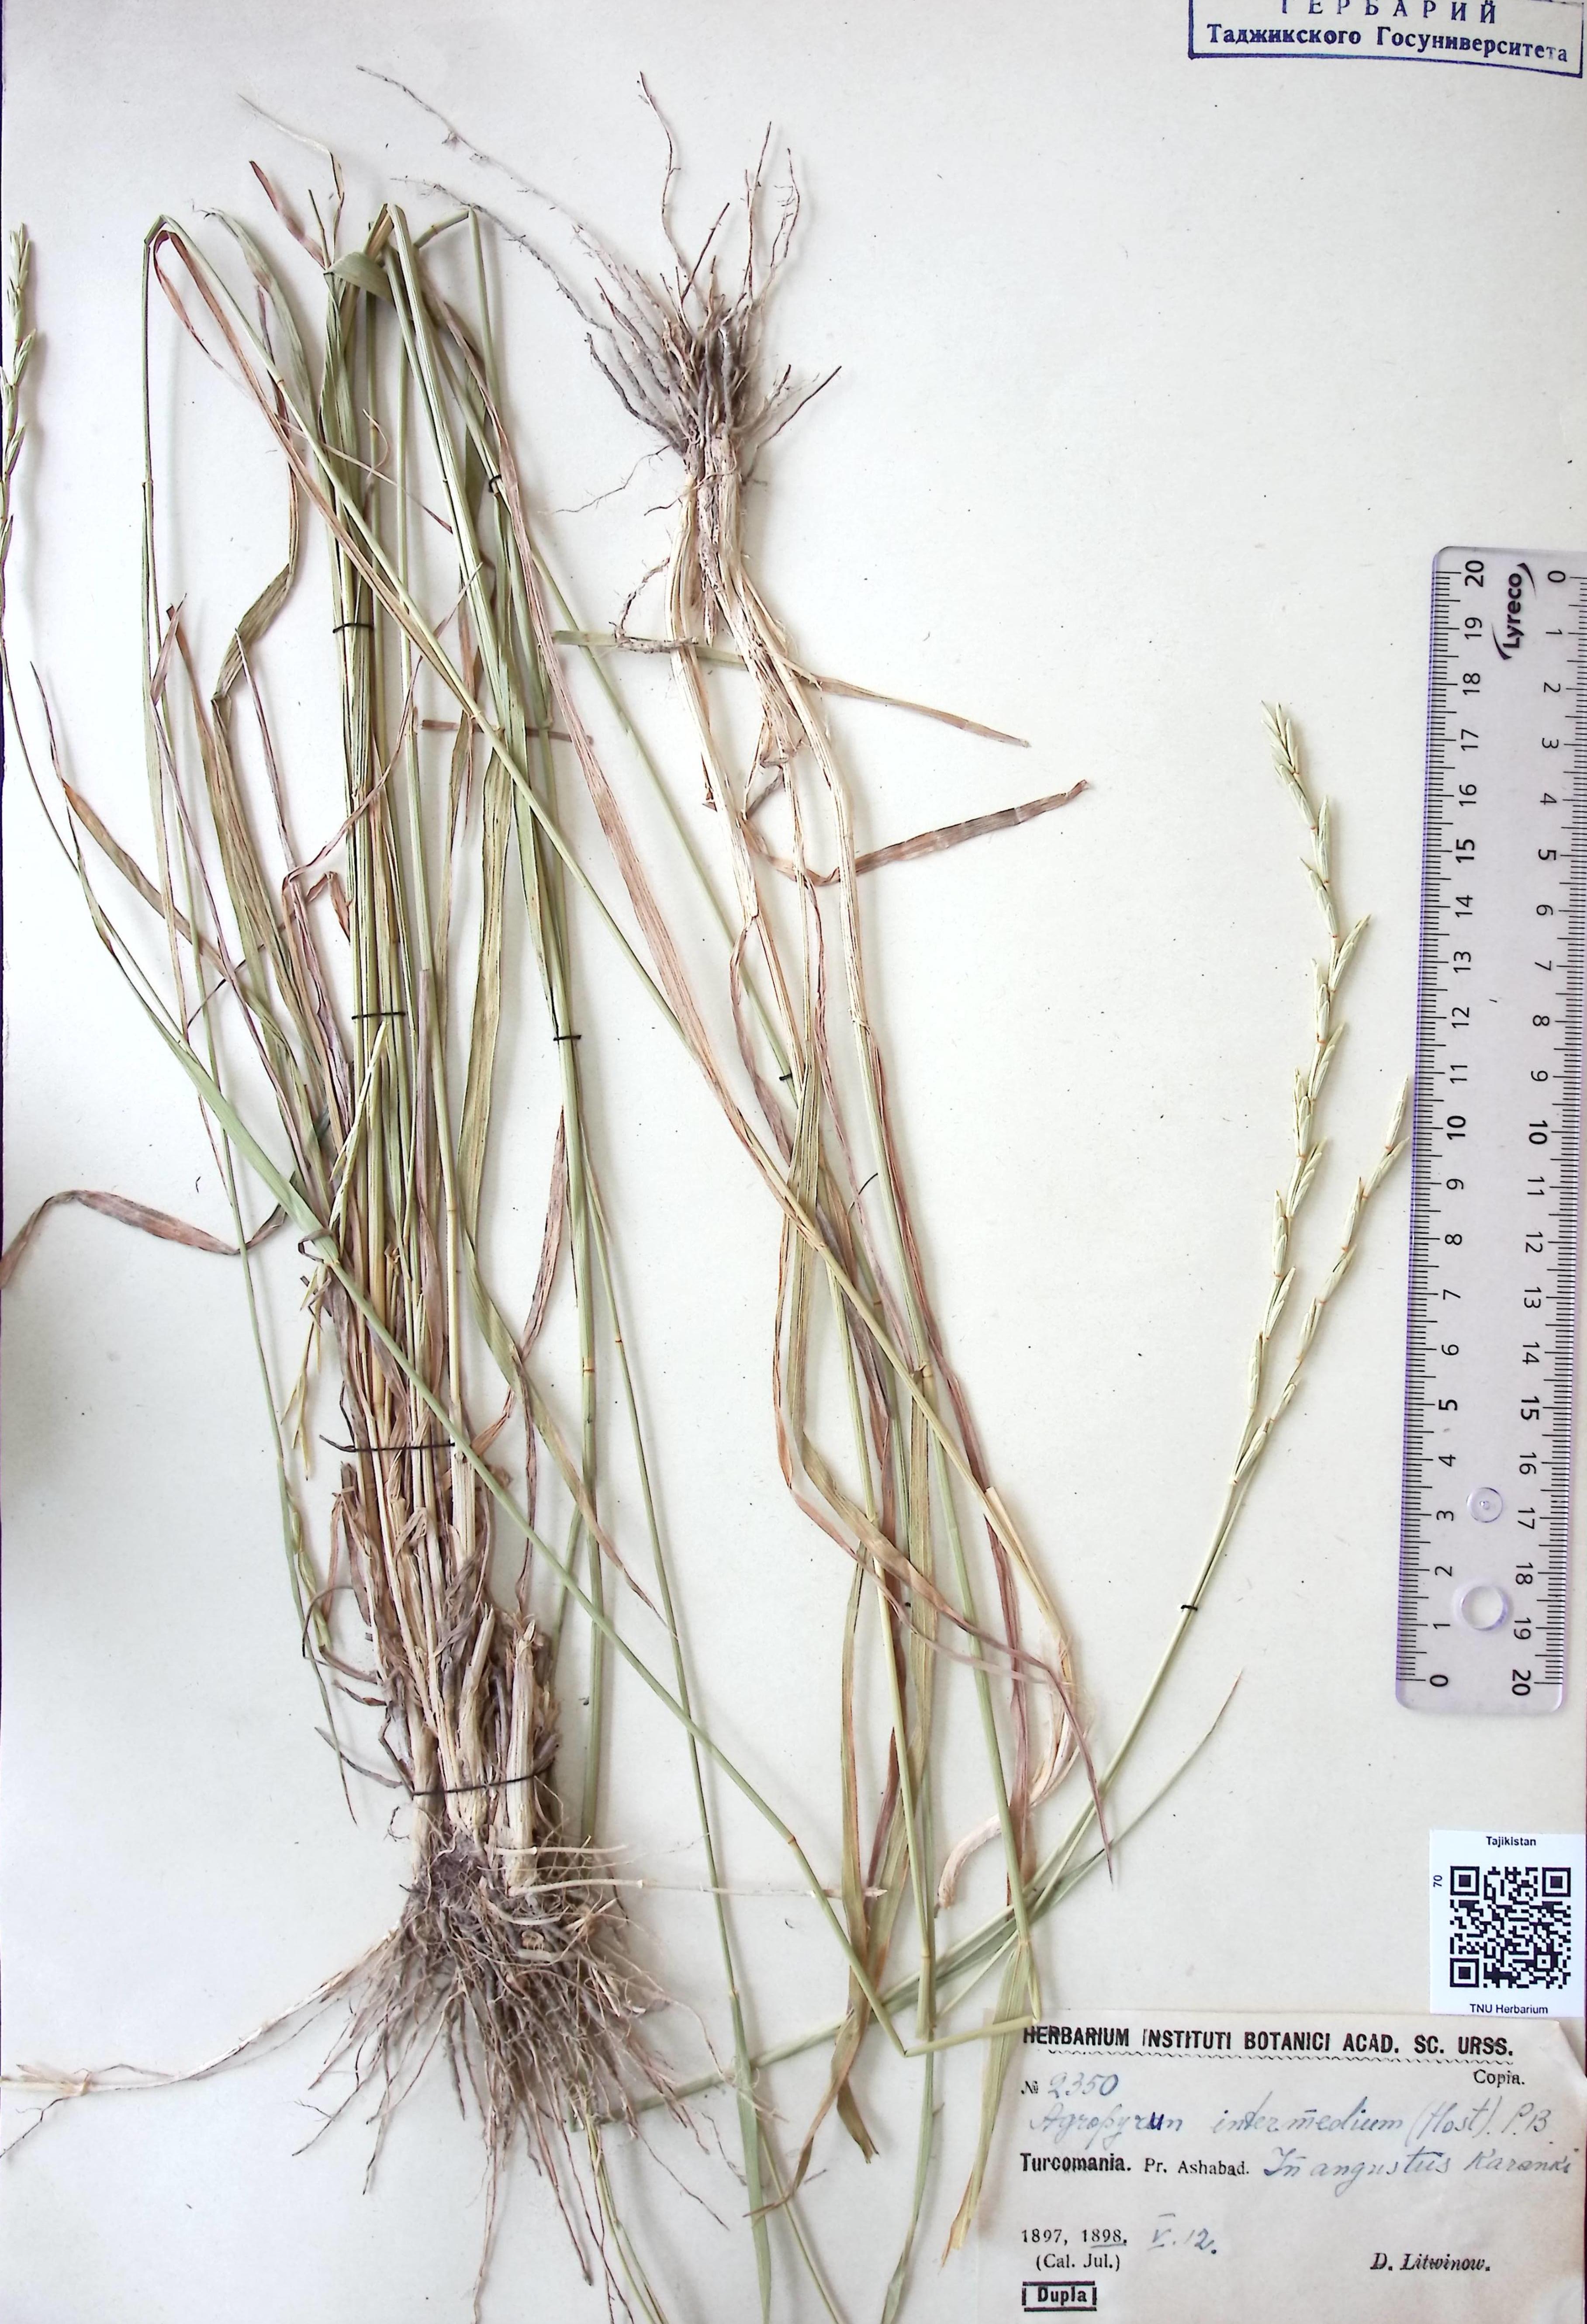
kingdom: Plantae
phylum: Tracheophyta
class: Liliopsida
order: Poales
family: Poaceae
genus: Thinopyrum
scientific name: Thinopyrum intermedium
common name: Intermediate wheatgrass
